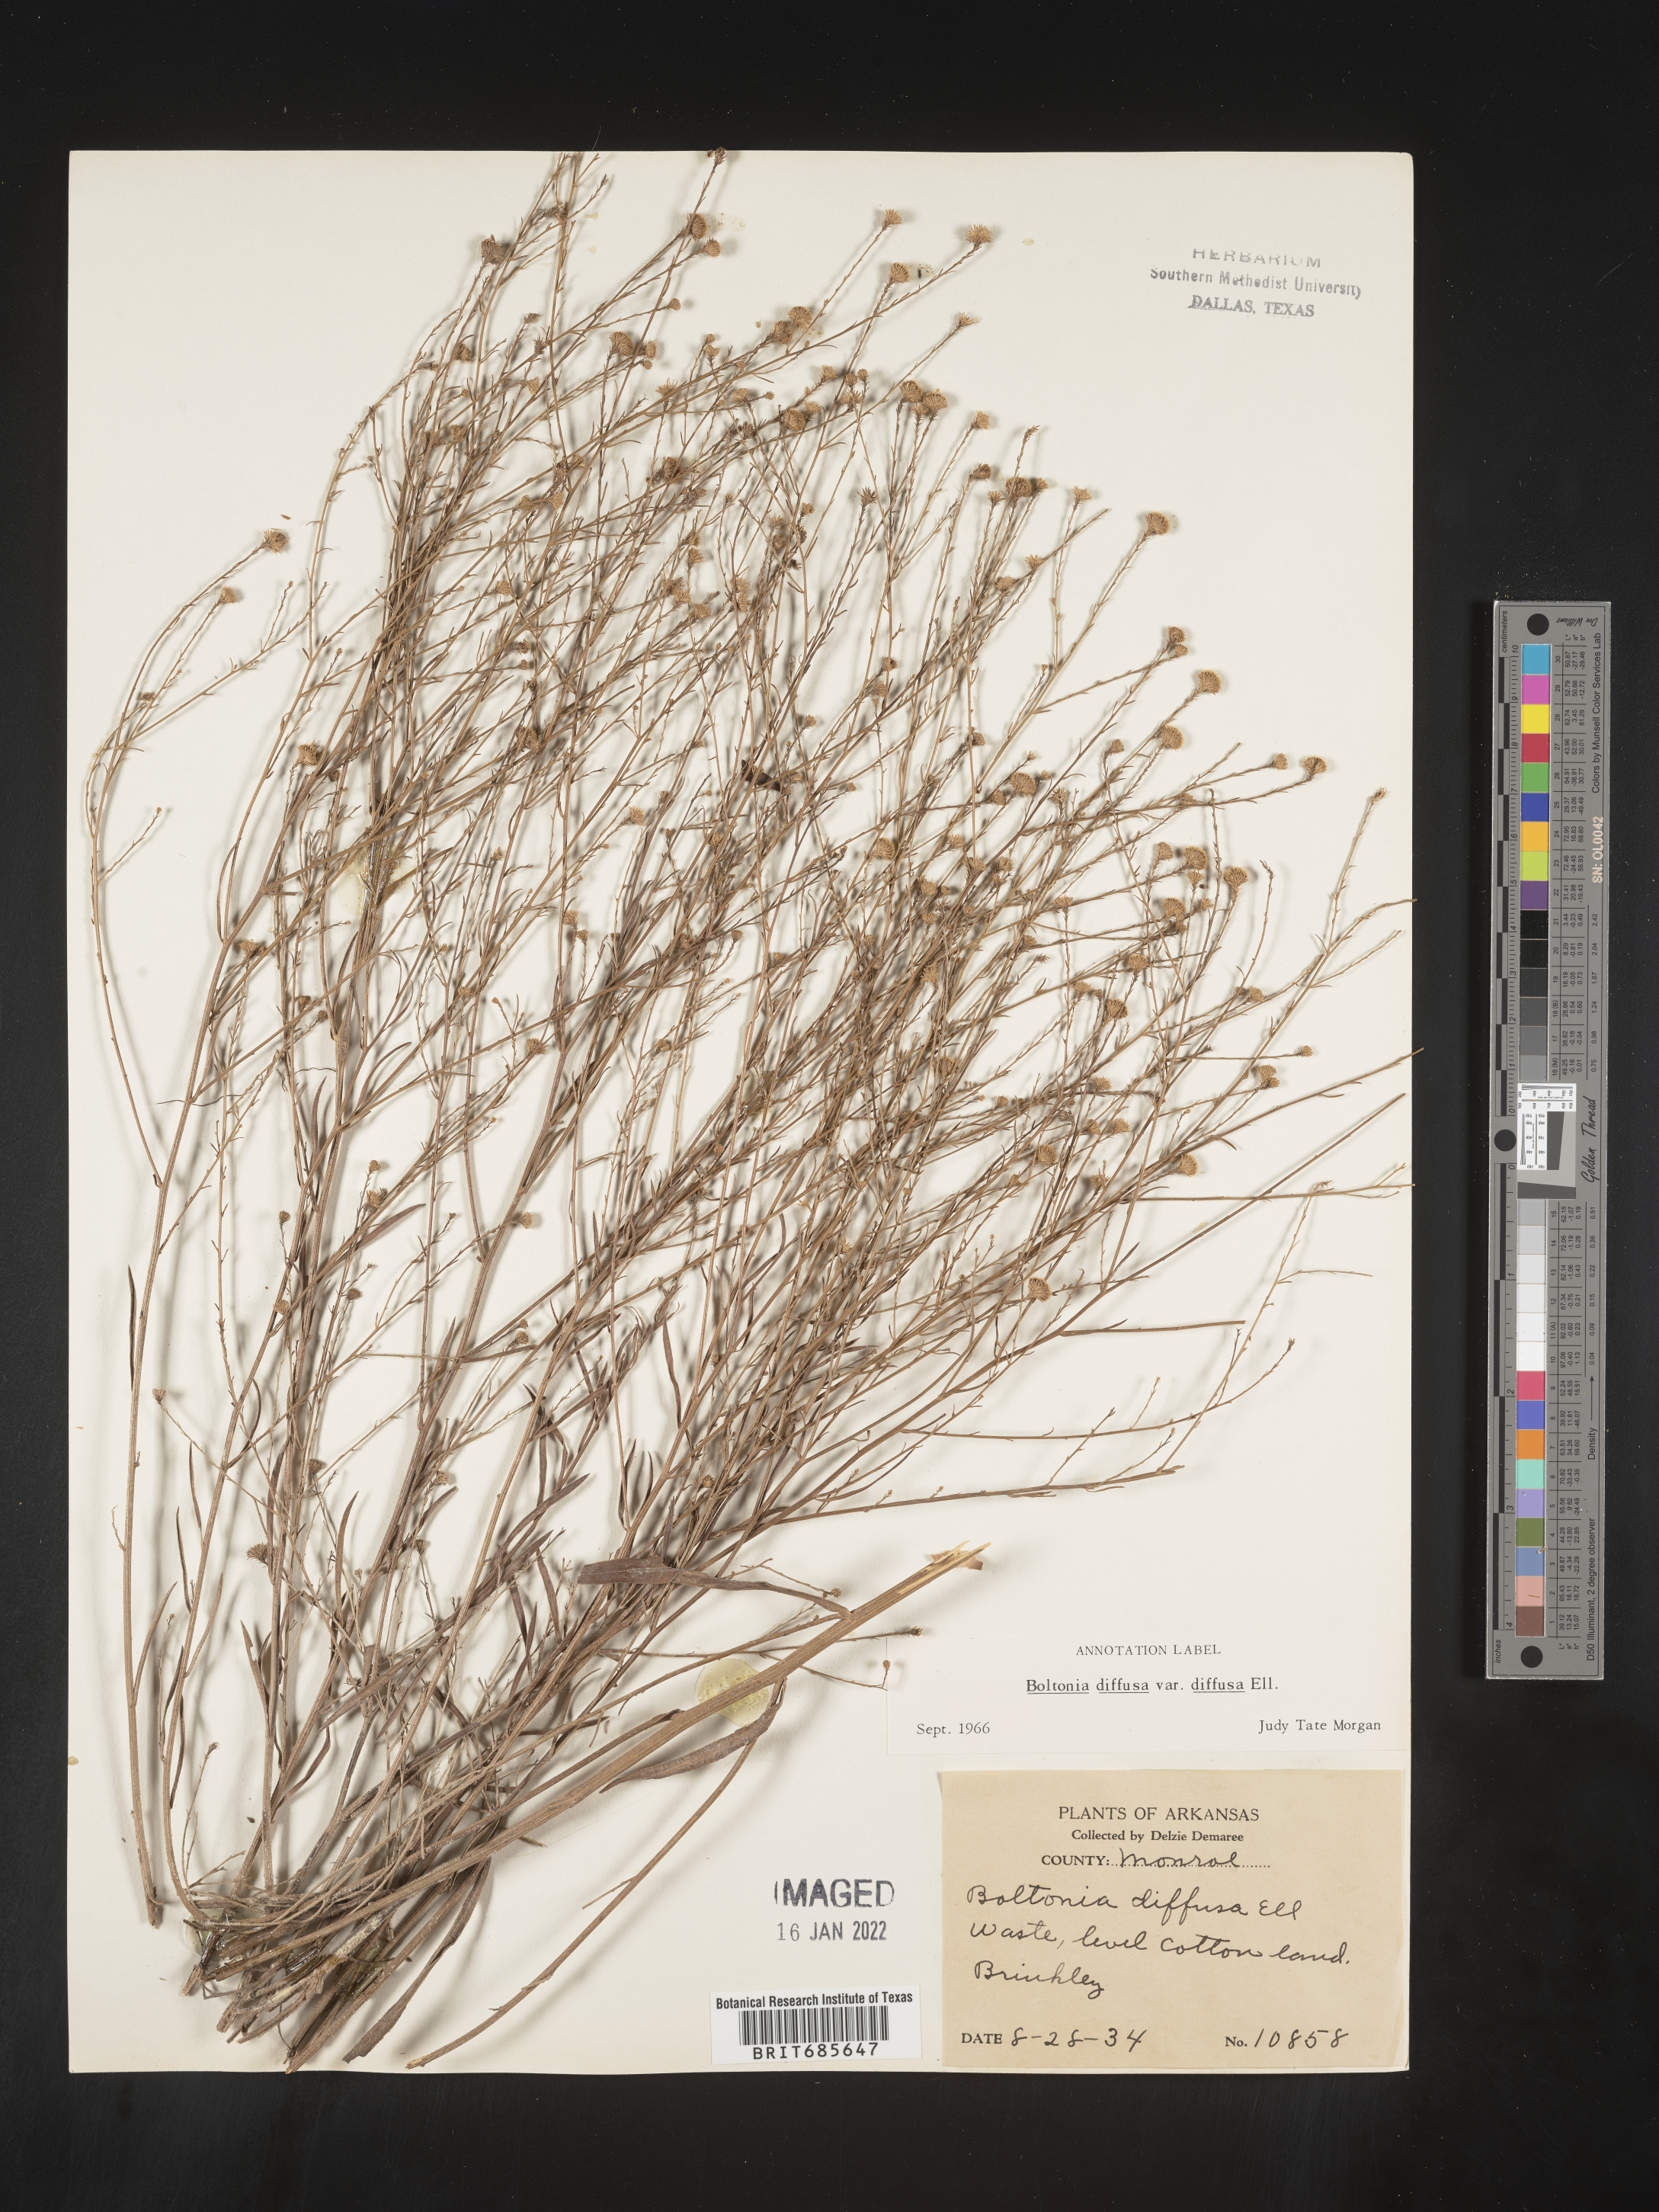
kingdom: Plantae
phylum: Tracheophyta
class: Magnoliopsida
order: Asterales
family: Asteraceae
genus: Boltonia
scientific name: Boltonia diffusa
